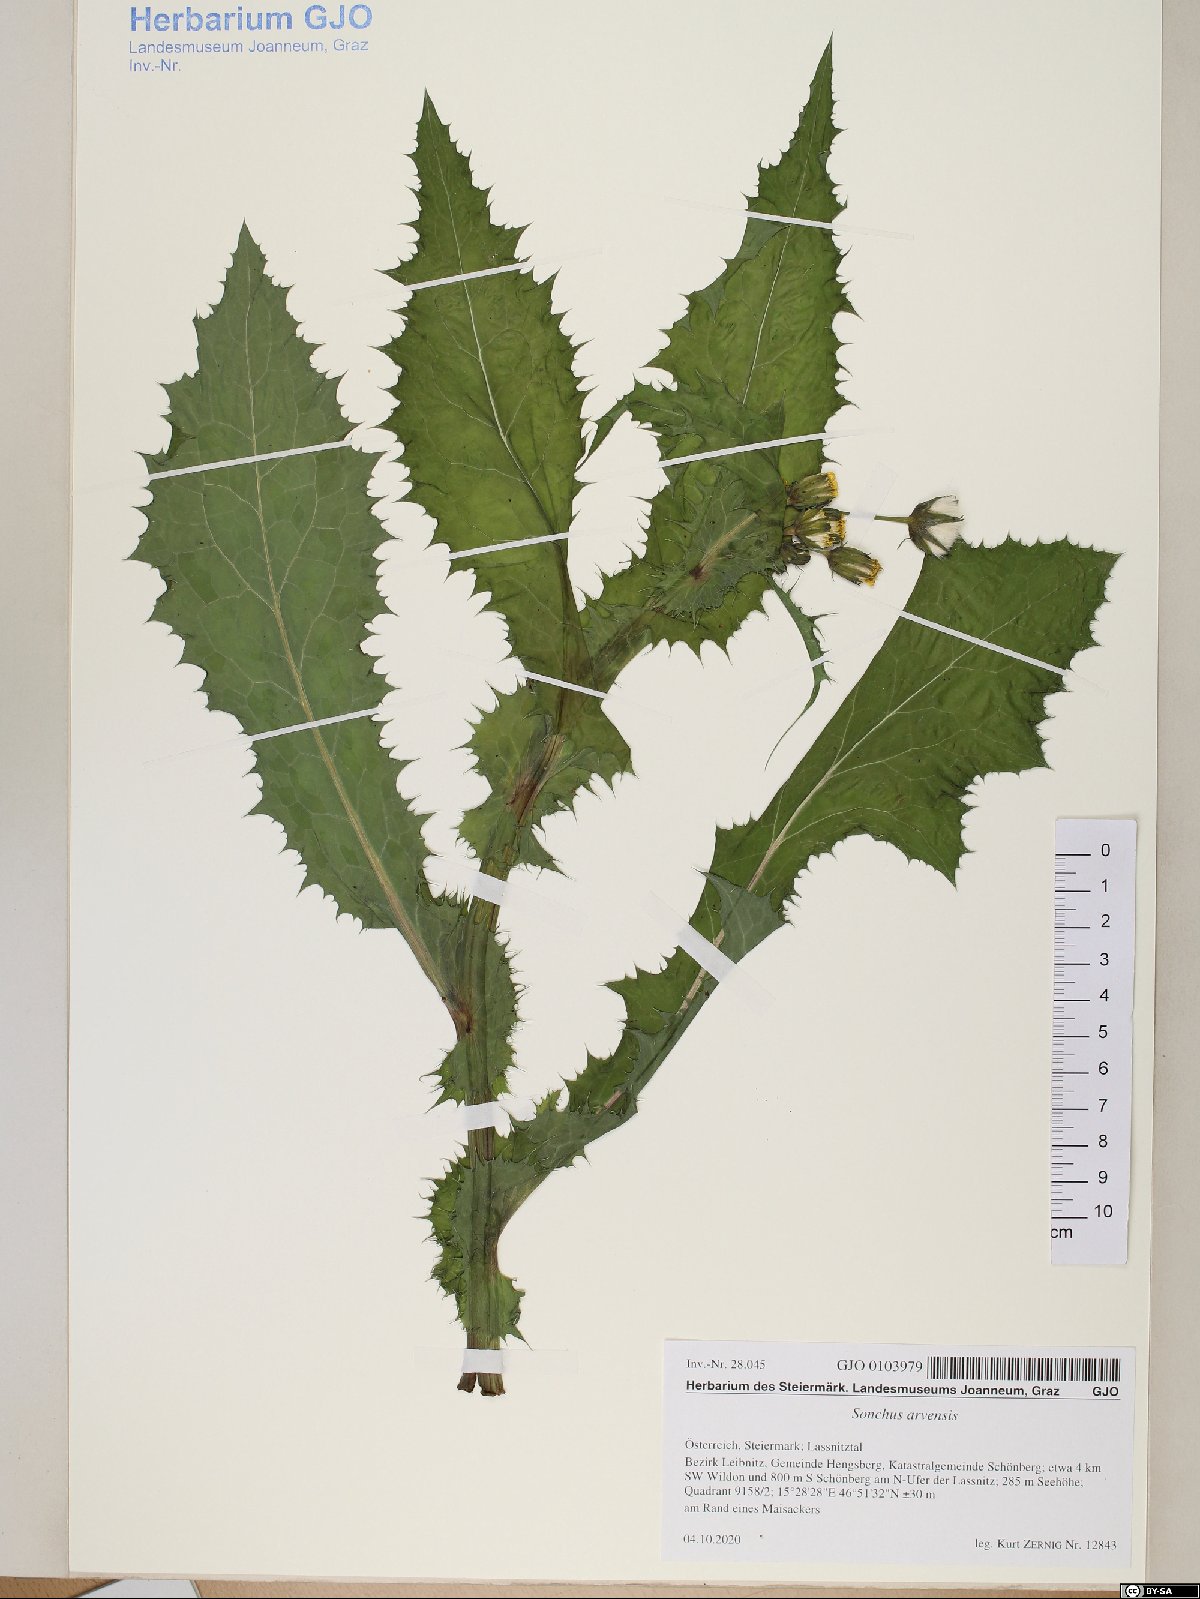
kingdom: Plantae
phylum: Tracheophyta
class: Magnoliopsida
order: Asterales
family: Asteraceae
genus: Sonchus
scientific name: Sonchus arvensis
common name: Perennial sow-thistle
